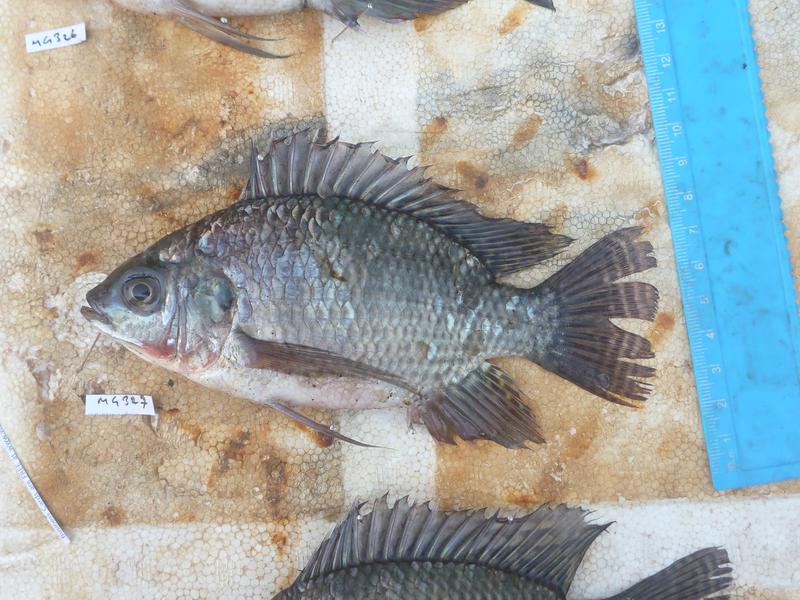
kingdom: Animalia
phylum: Chordata
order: Perciformes
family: Cichlidae
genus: Oreochromis
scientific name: Oreochromis niloticus
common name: Nile tilapia
